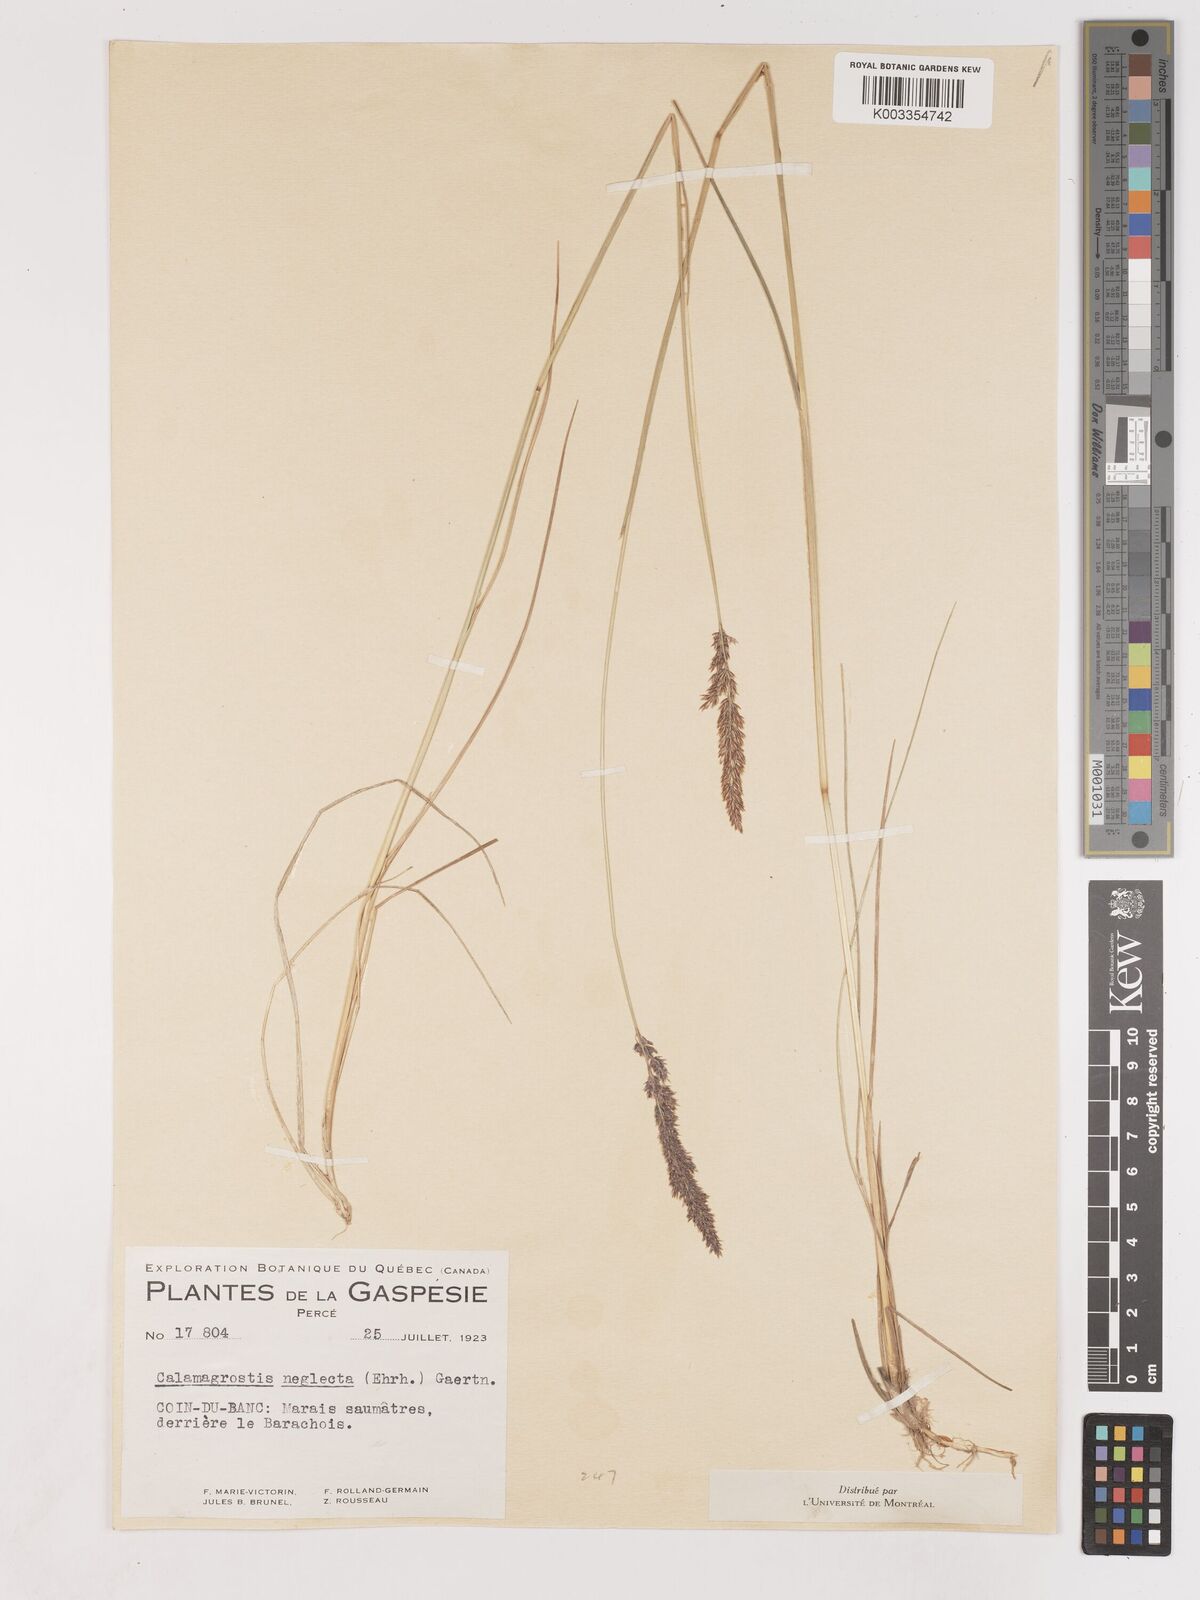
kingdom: Plantae
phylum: Tracheophyta
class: Liliopsida
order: Poales
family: Poaceae
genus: Cinnagrostis
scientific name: Cinnagrostis recta
